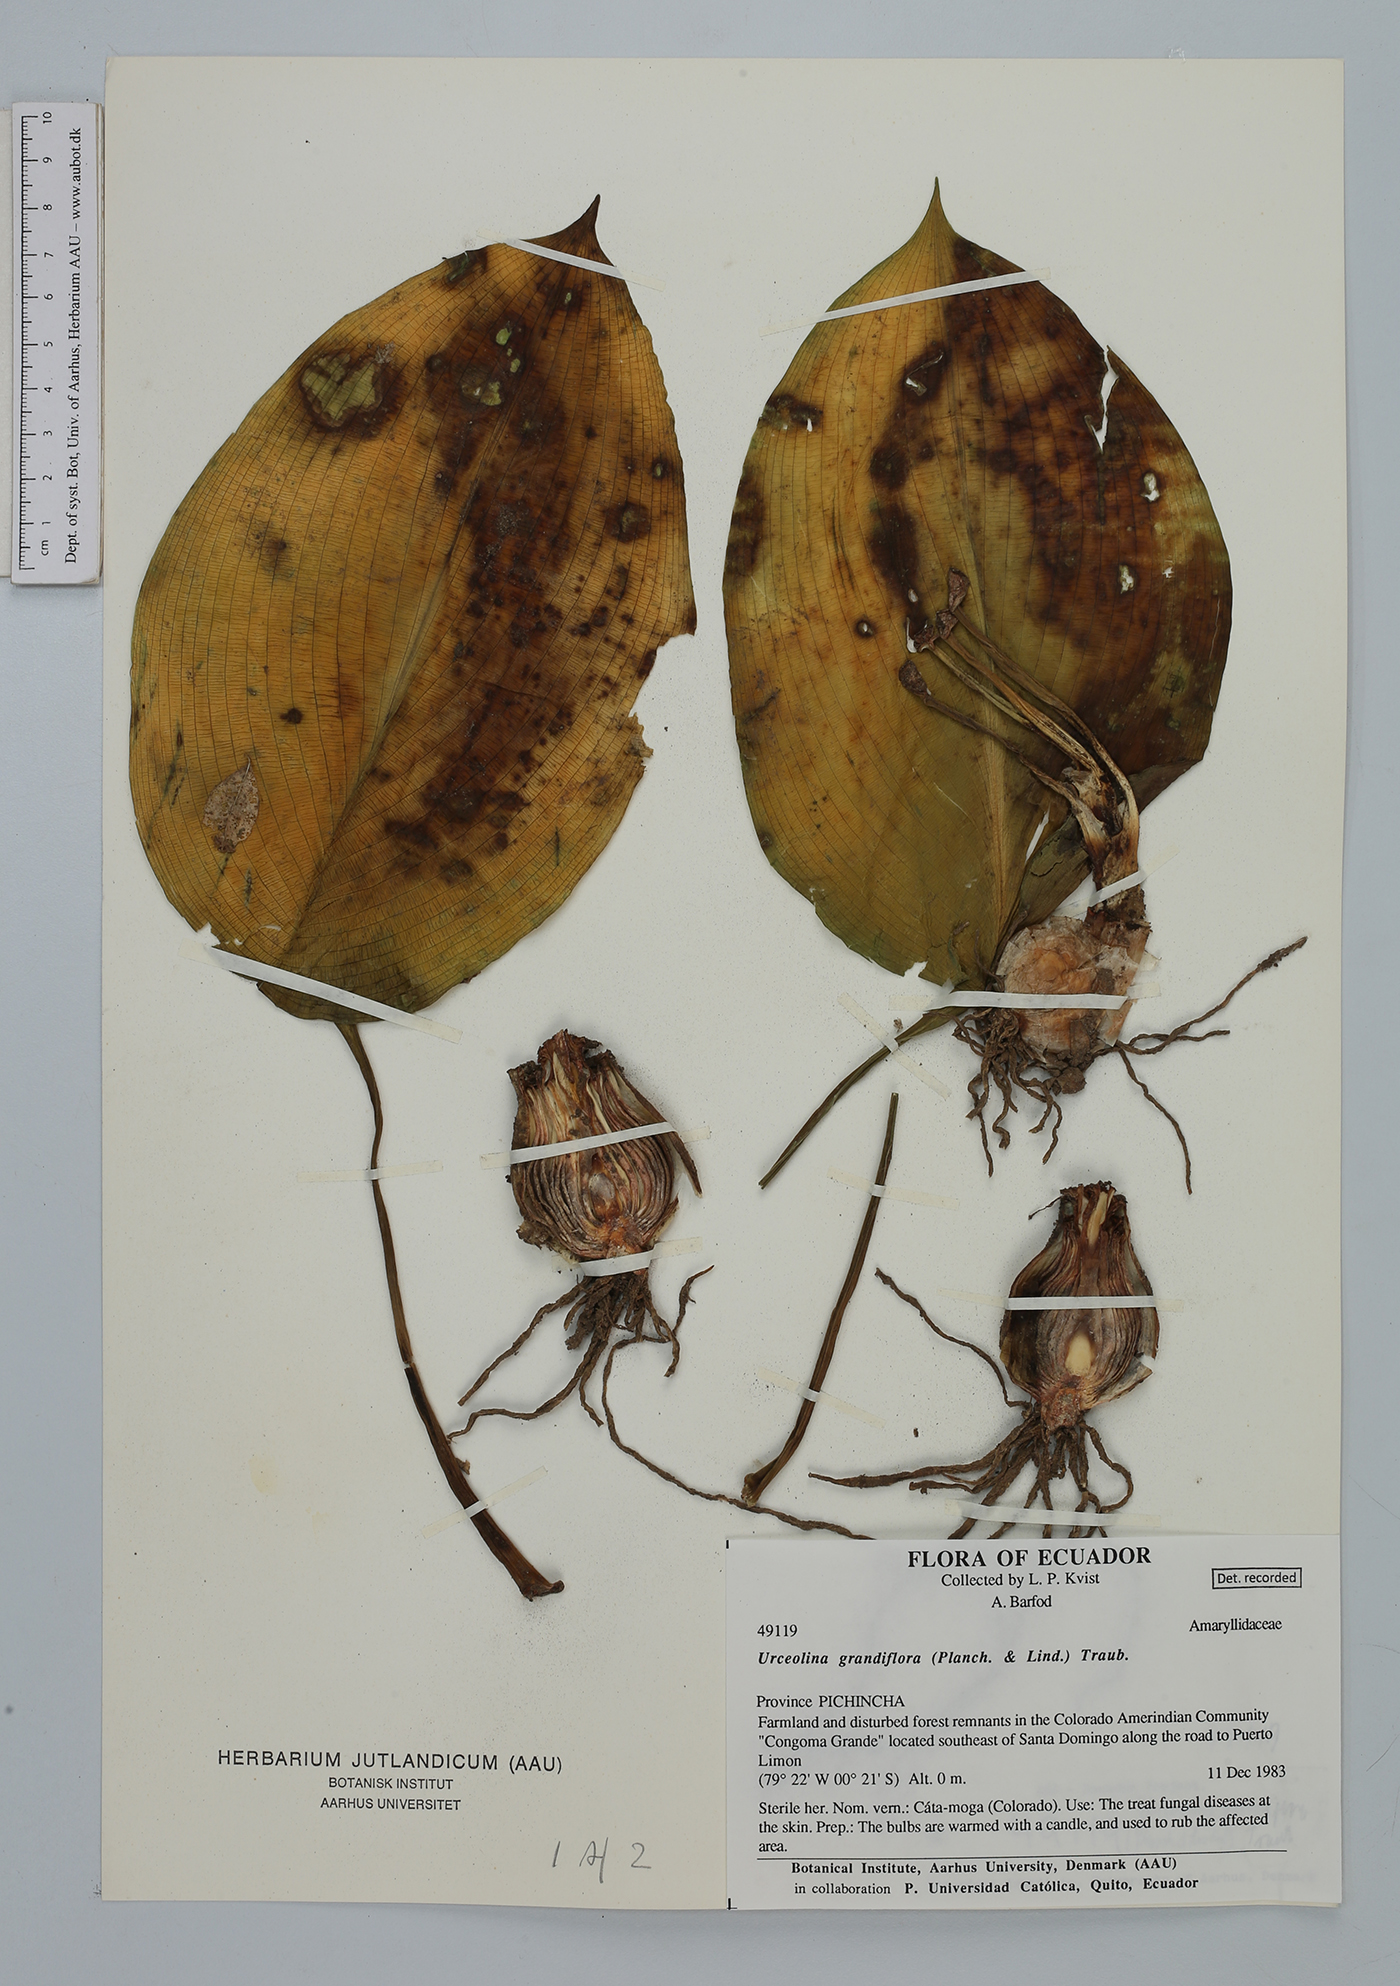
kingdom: Plantae
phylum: Tracheophyta
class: Liliopsida
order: Asparagales
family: Amaryllidaceae
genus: Urceolina
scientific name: Urceolina grandiflora
